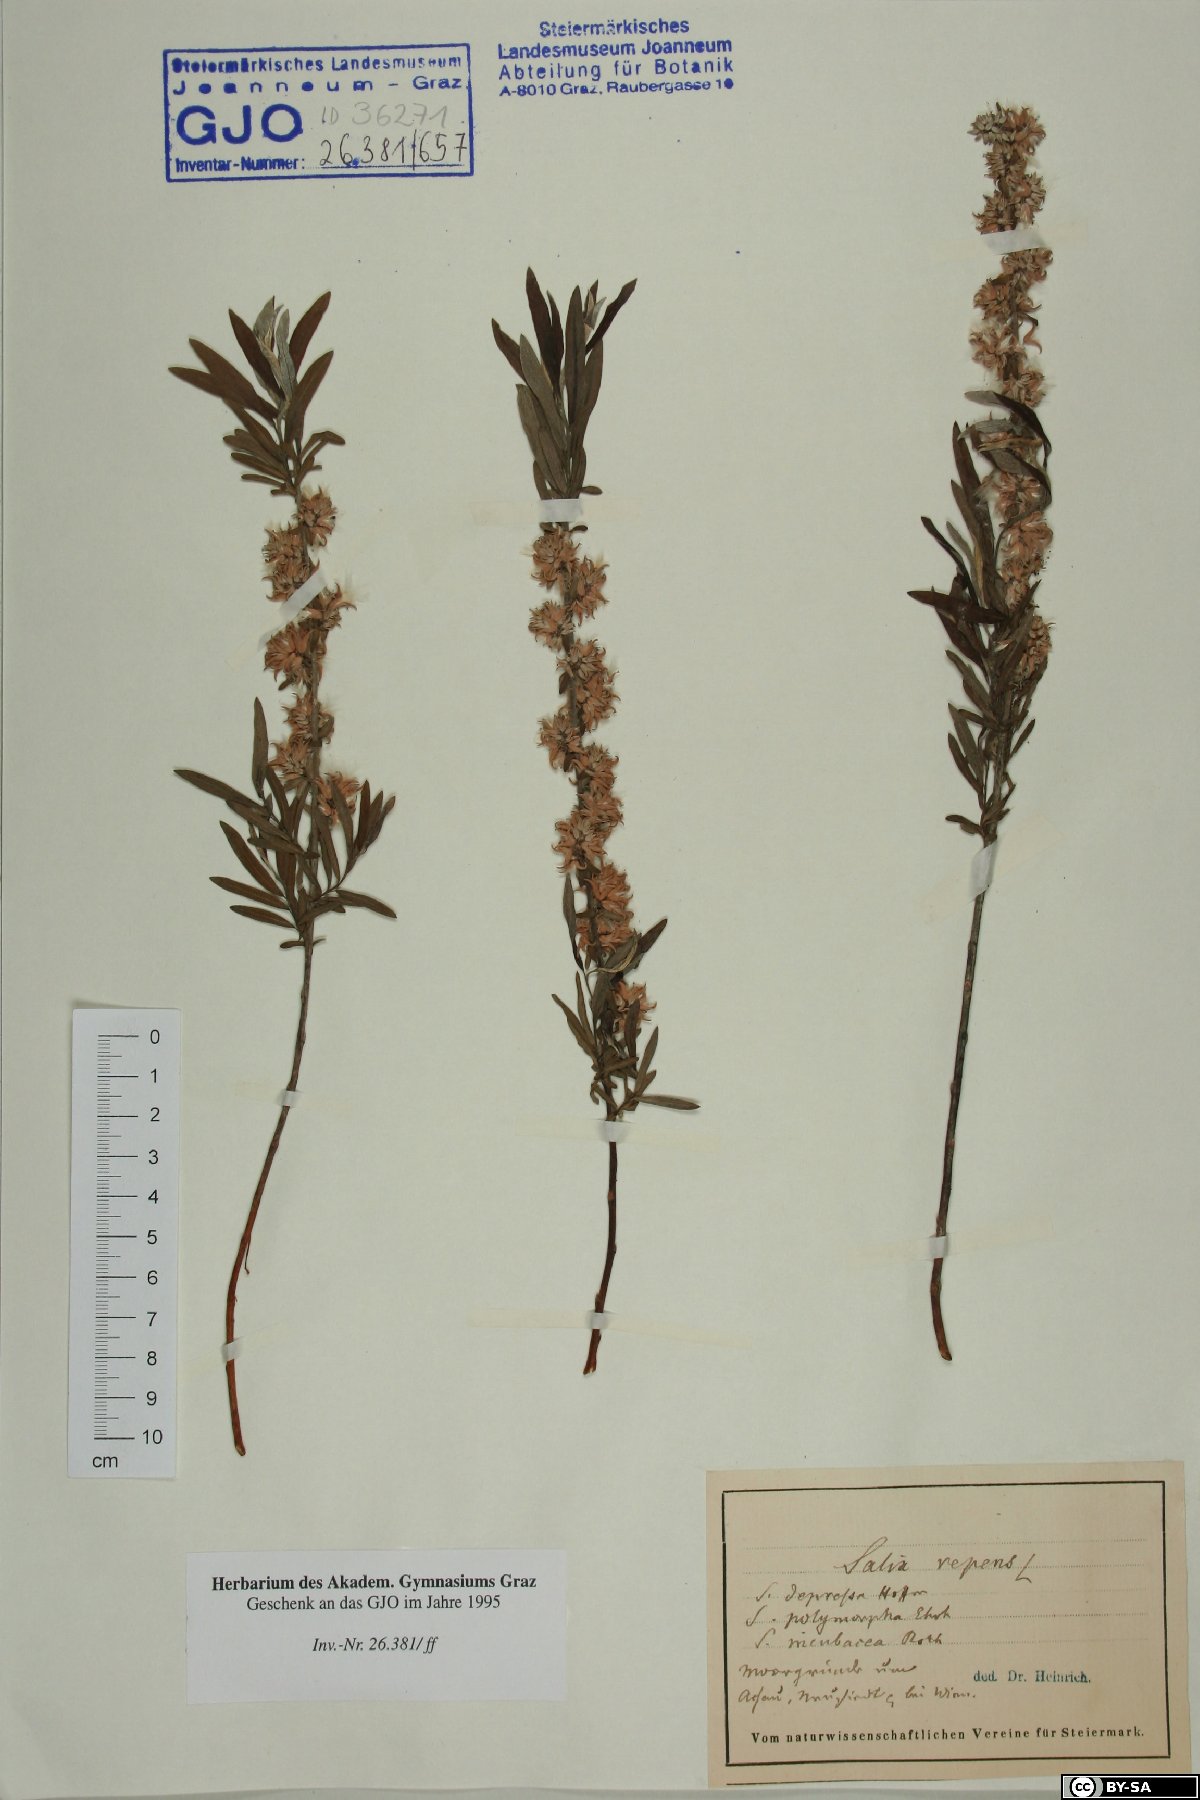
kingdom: Plantae
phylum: Tracheophyta
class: Magnoliopsida
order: Malpighiales
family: Salicaceae
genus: Salix
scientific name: Salix repens
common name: Creeping willow
